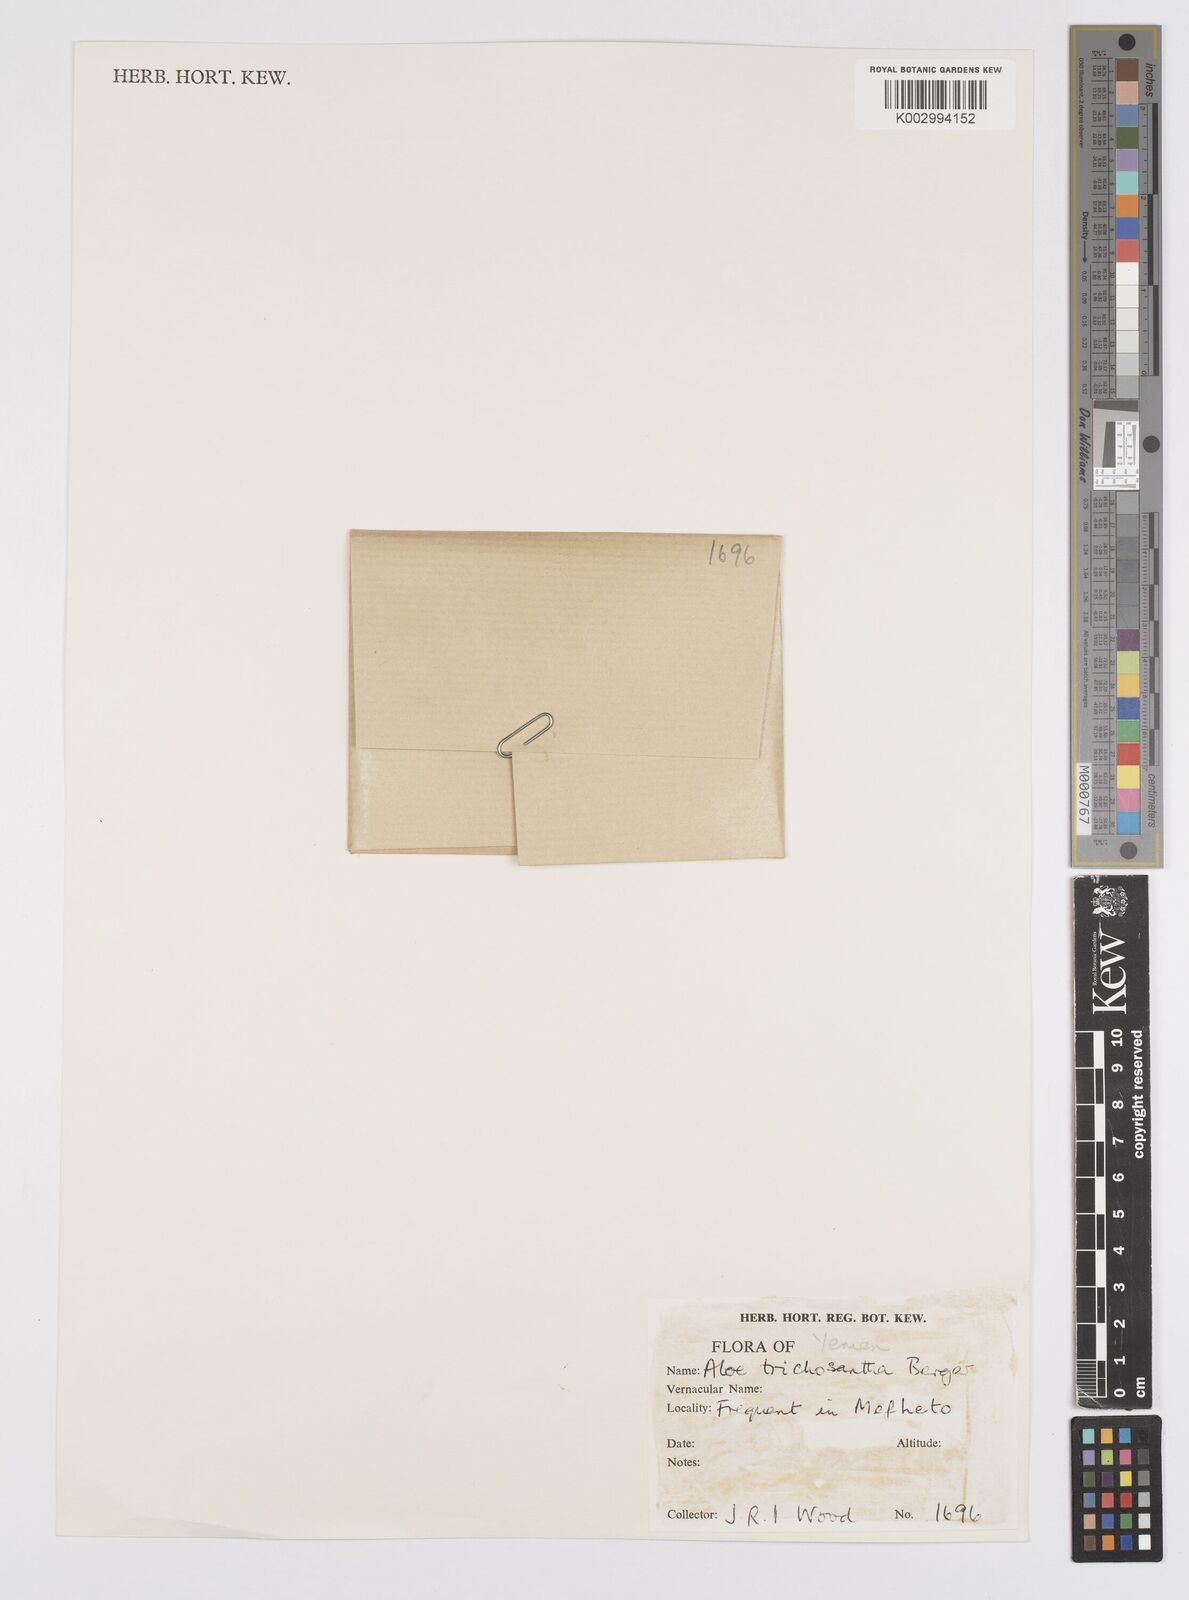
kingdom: Plantae
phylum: Tracheophyta
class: Liliopsida
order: Asparagales
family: Asphodelaceae
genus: Aloe
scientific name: Aloe menachensis
